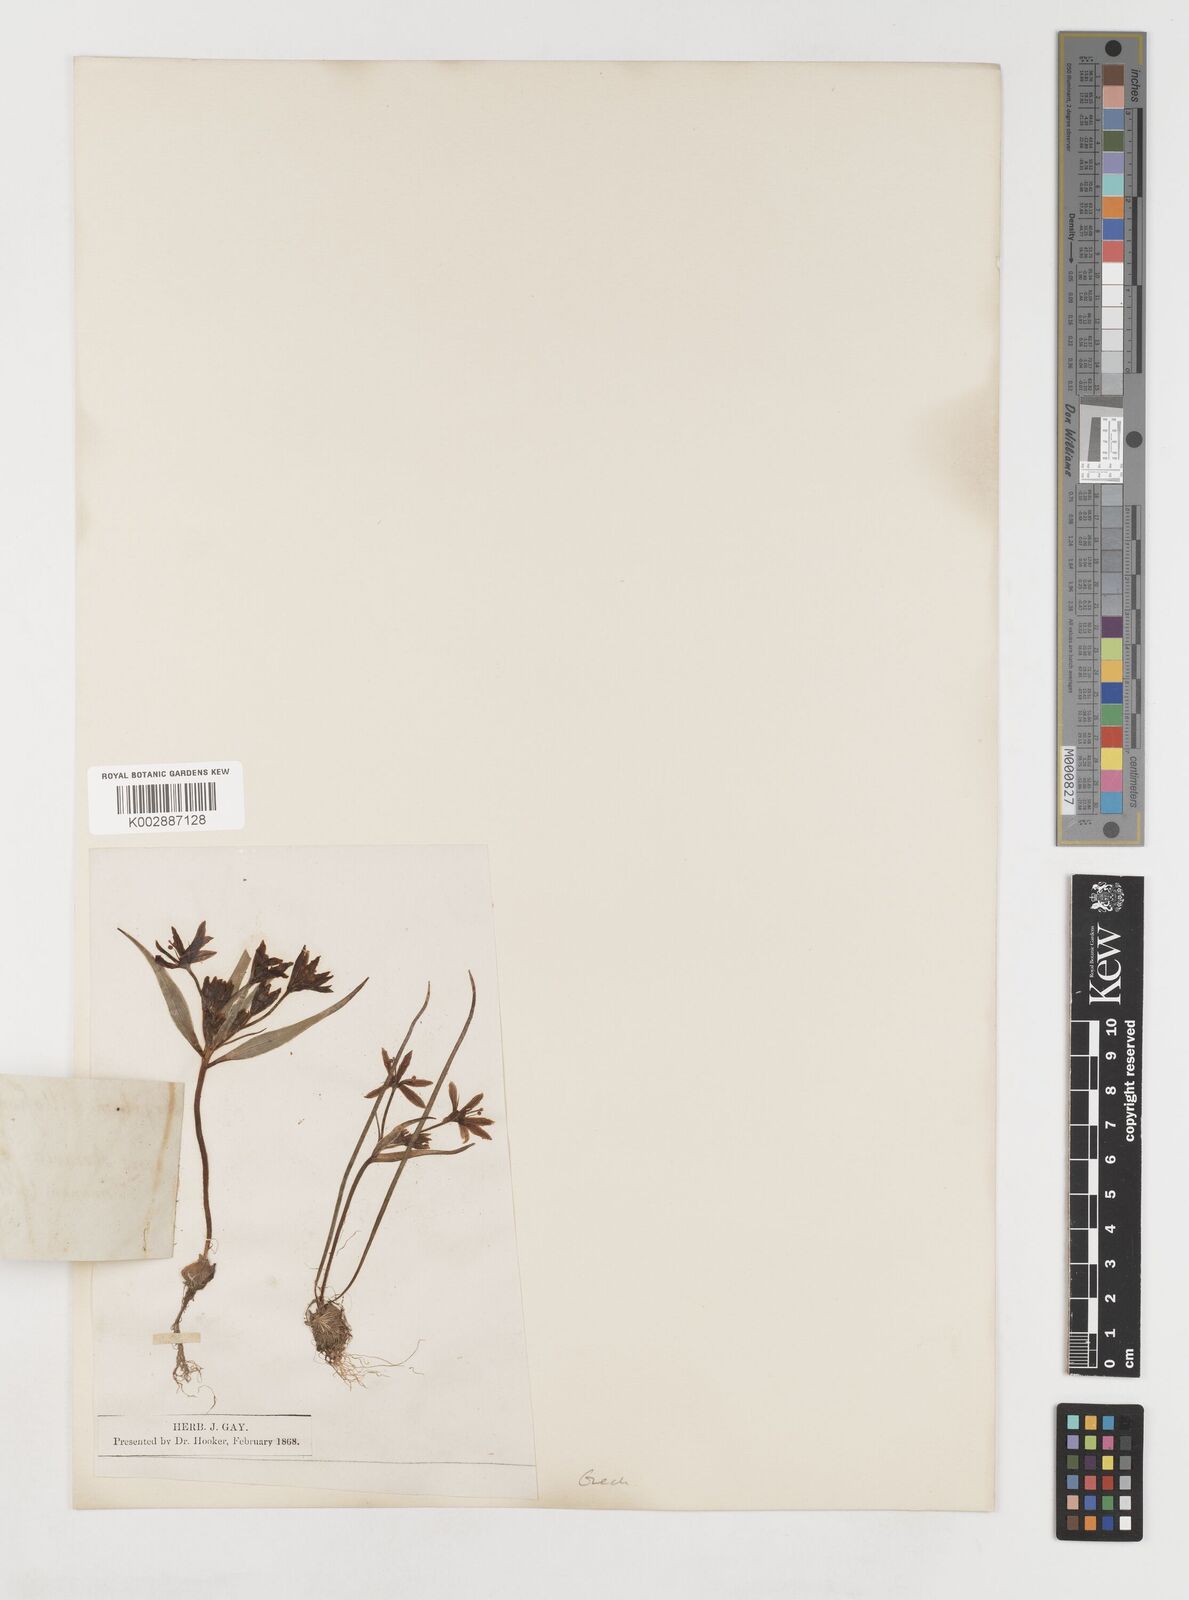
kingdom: Plantae
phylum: Tracheophyta
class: Liliopsida
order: Liliales
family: Liliaceae
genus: Gagea
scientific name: Gagea minima
